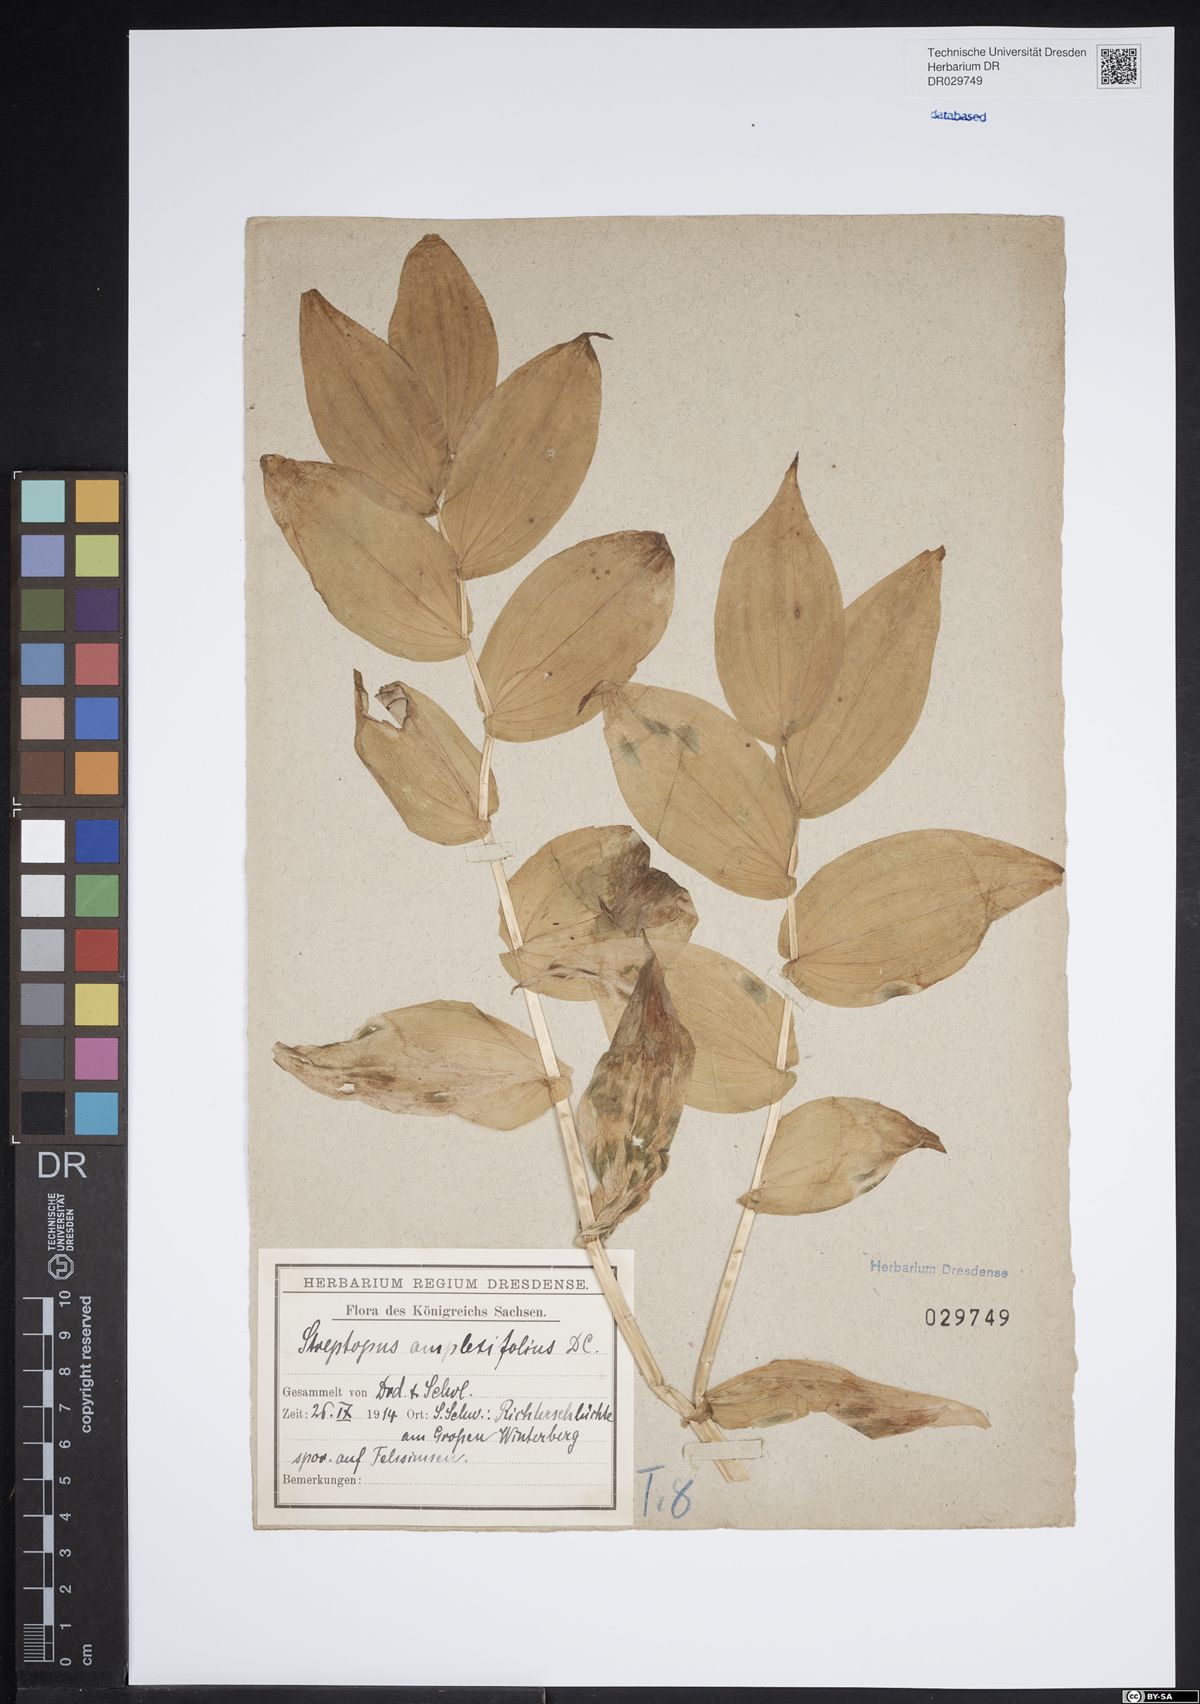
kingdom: Plantae
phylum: Tracheophyta
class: Liliopsida
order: Liliales
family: Liliaceae
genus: Streptopus
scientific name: Streptopus amplexifolius
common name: Clasp twisted stalk
